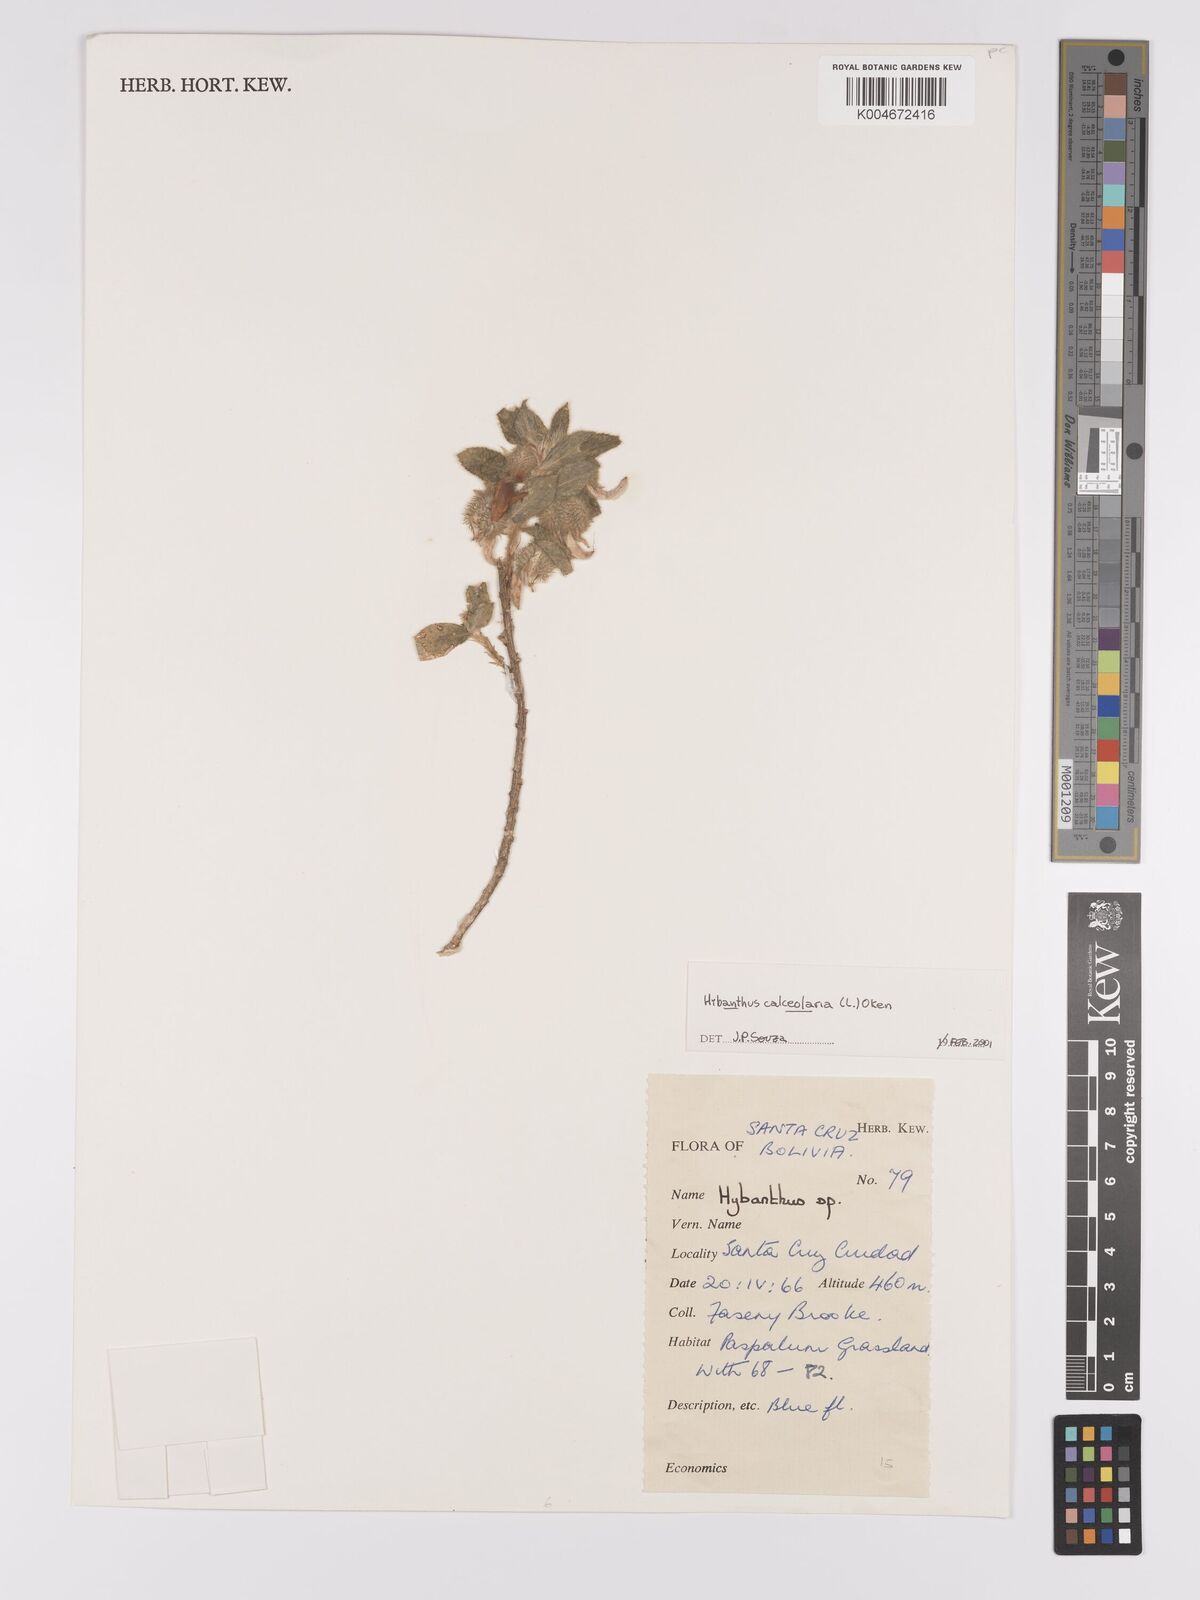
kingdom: Plantae
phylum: Tracheophyta
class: Magnoliopsida
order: Malpighiales
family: Violaceae
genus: Pombalia
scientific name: Pombalia calceolaria
